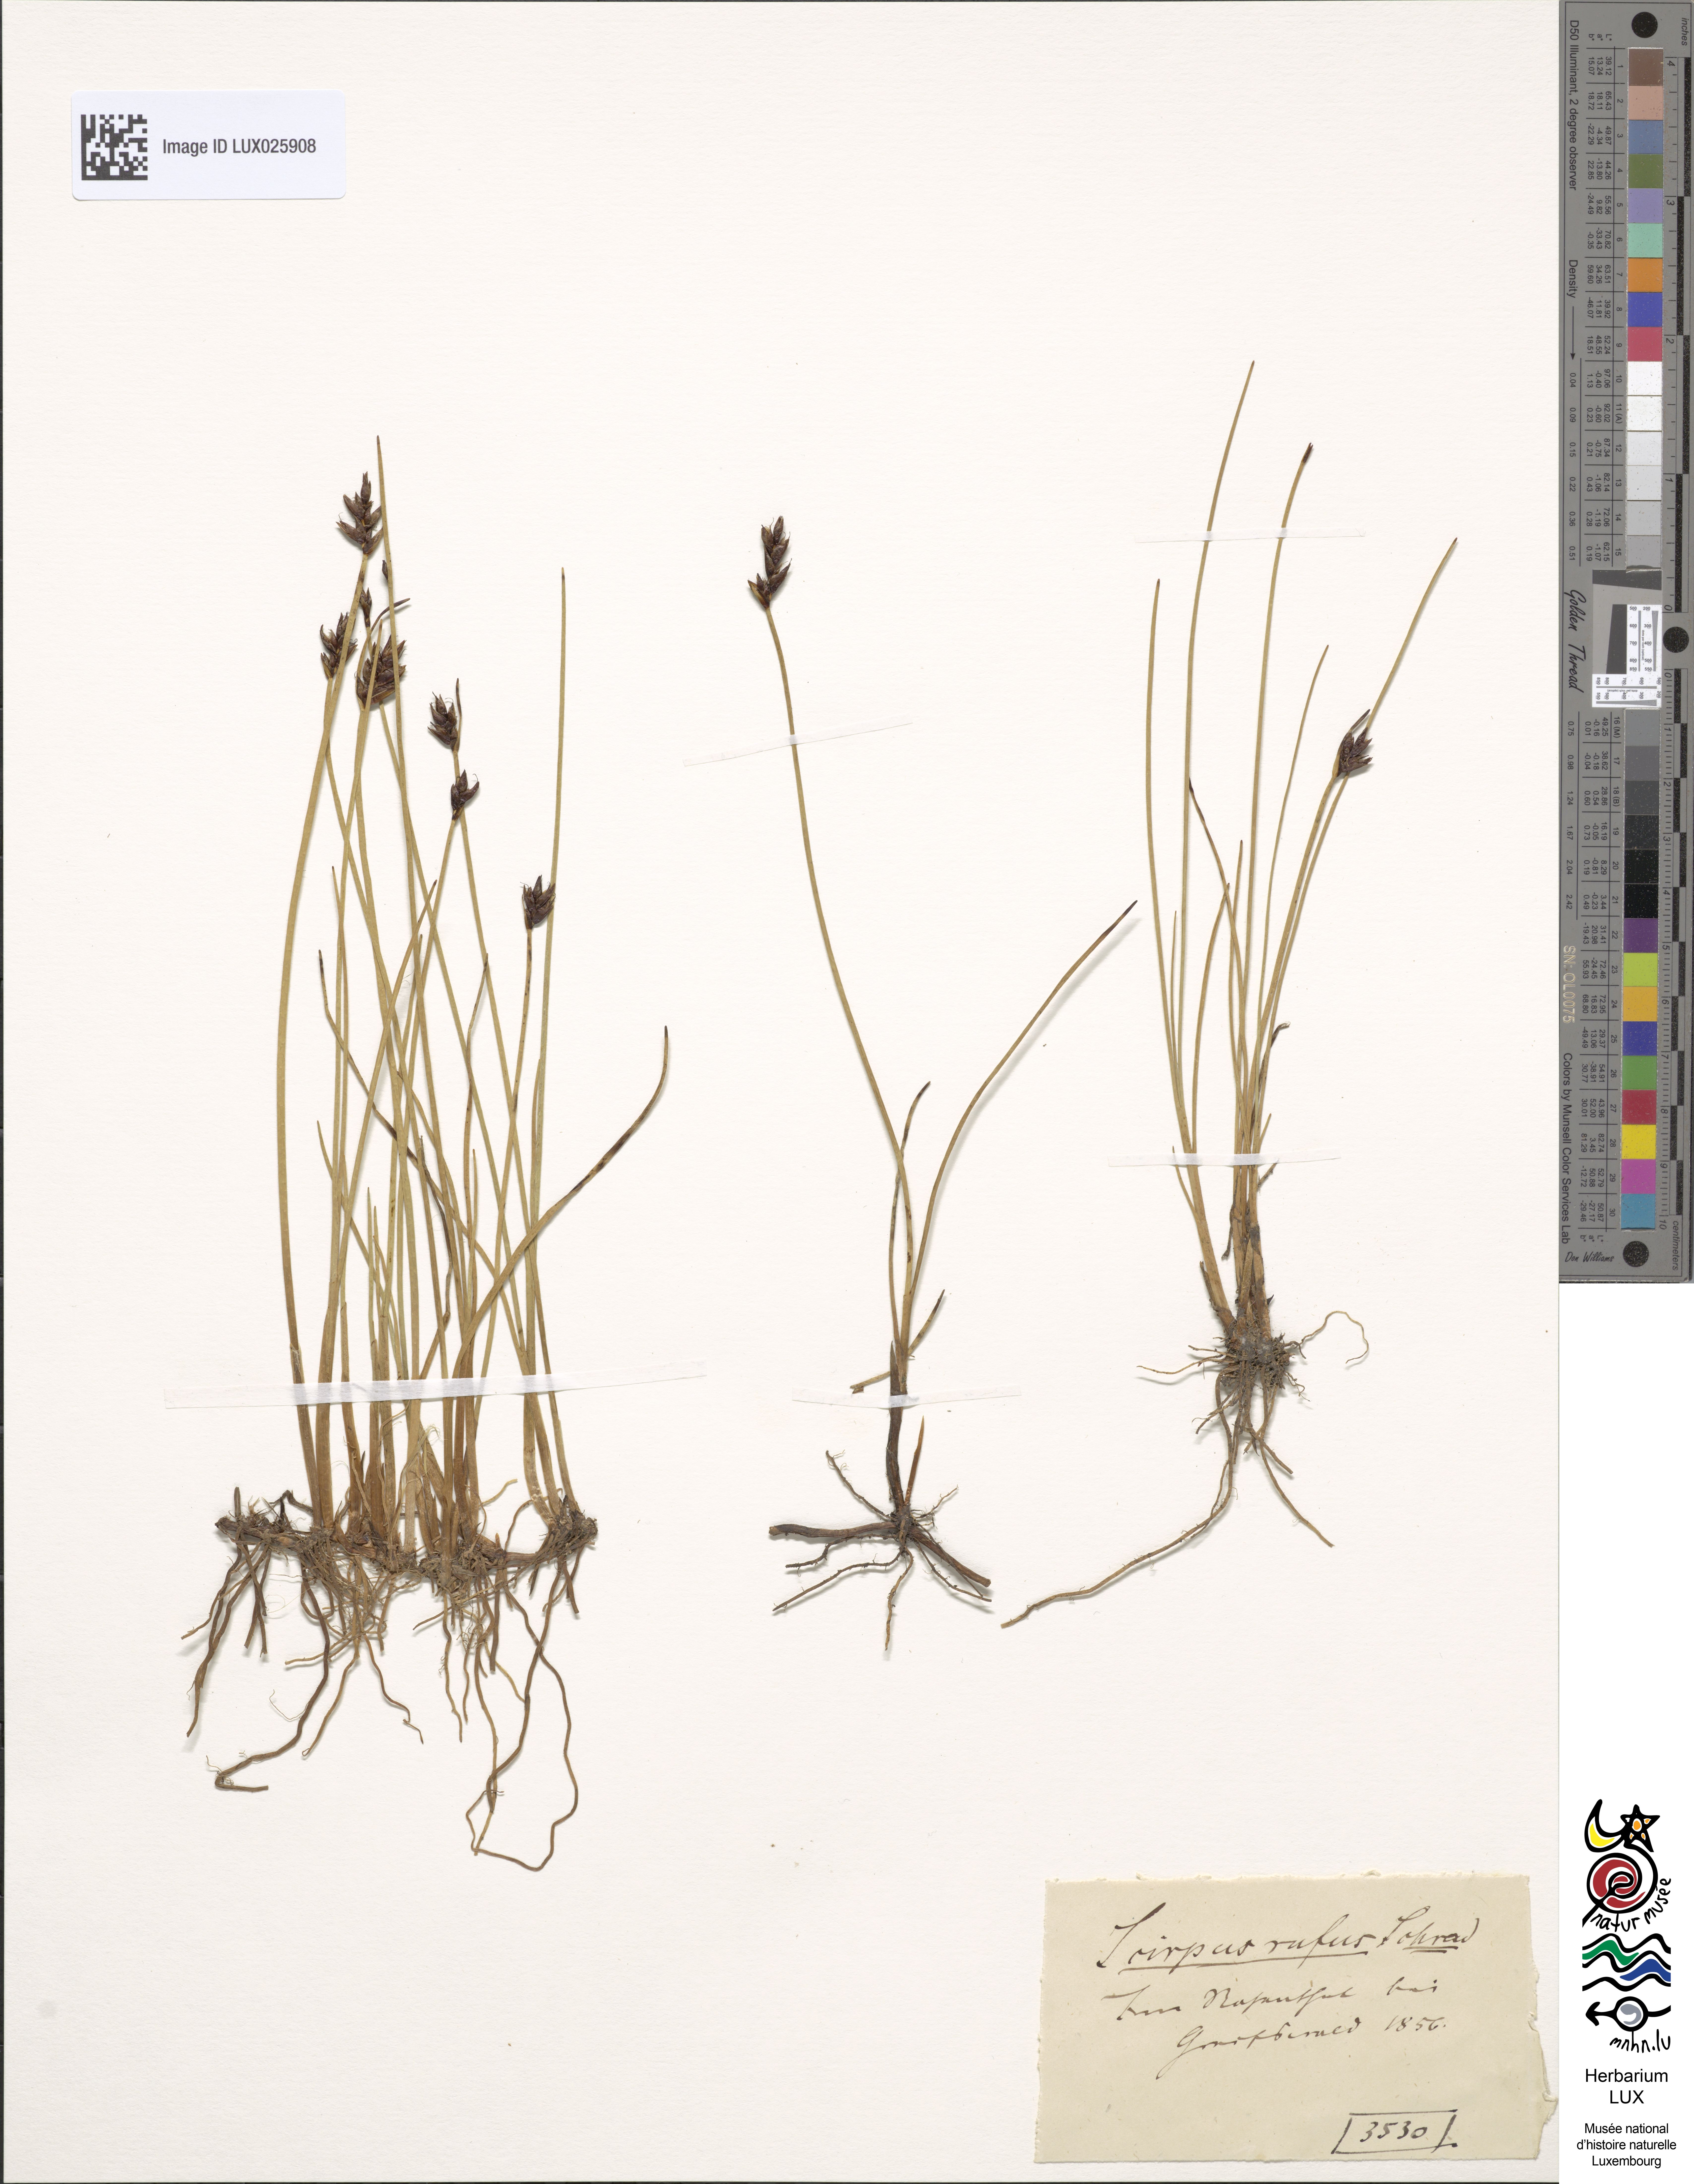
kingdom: Plantae
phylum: Tracheophyta
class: Liliopsida
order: Poales
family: Cyperaceae
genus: Blysmus
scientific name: Blysmus rufus
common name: Saltmarsh flat-sedge
